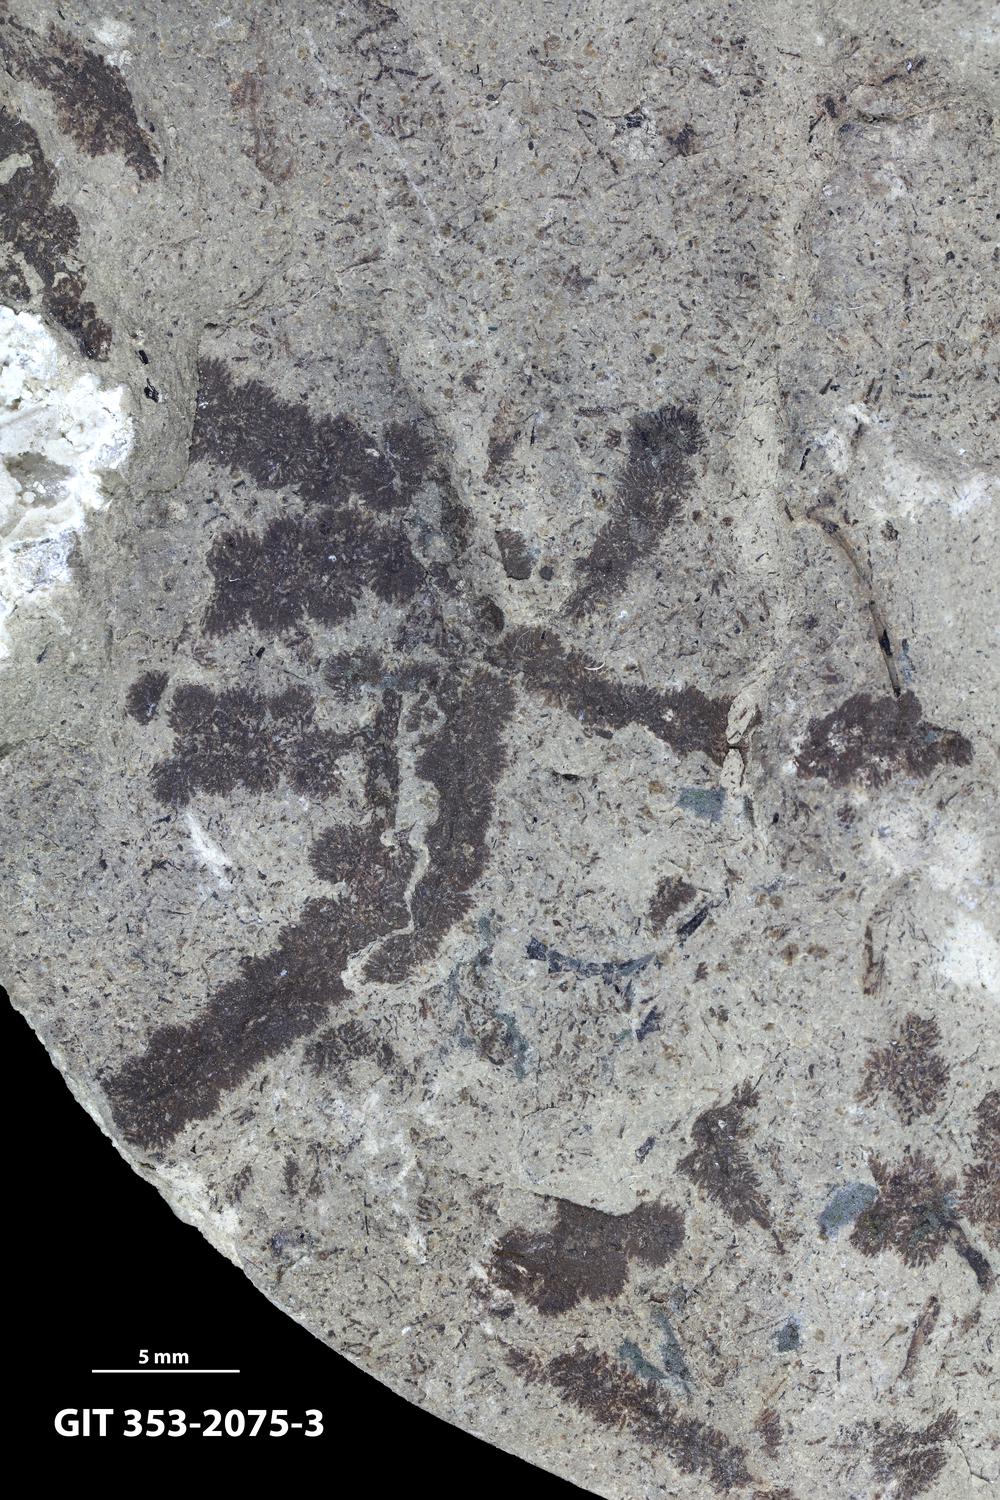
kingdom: Plantae
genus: Leveilleites
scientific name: Leveilleites hartnageli
